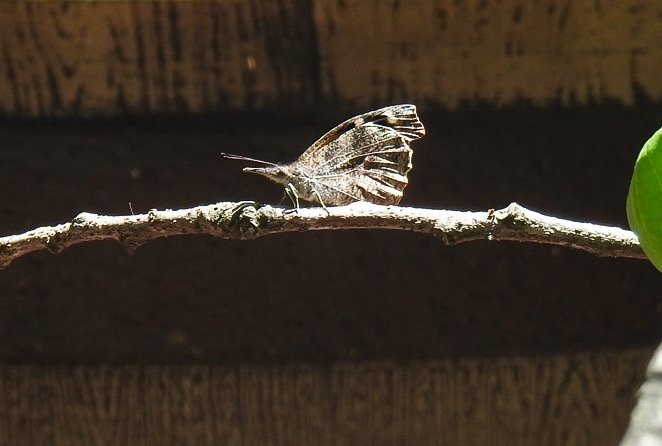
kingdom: Animalia
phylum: Arthropoda
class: Insecta
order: Lepidoptera
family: Nymphalidae
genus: Libytheana
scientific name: Libytheana carinenta
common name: American Snout
